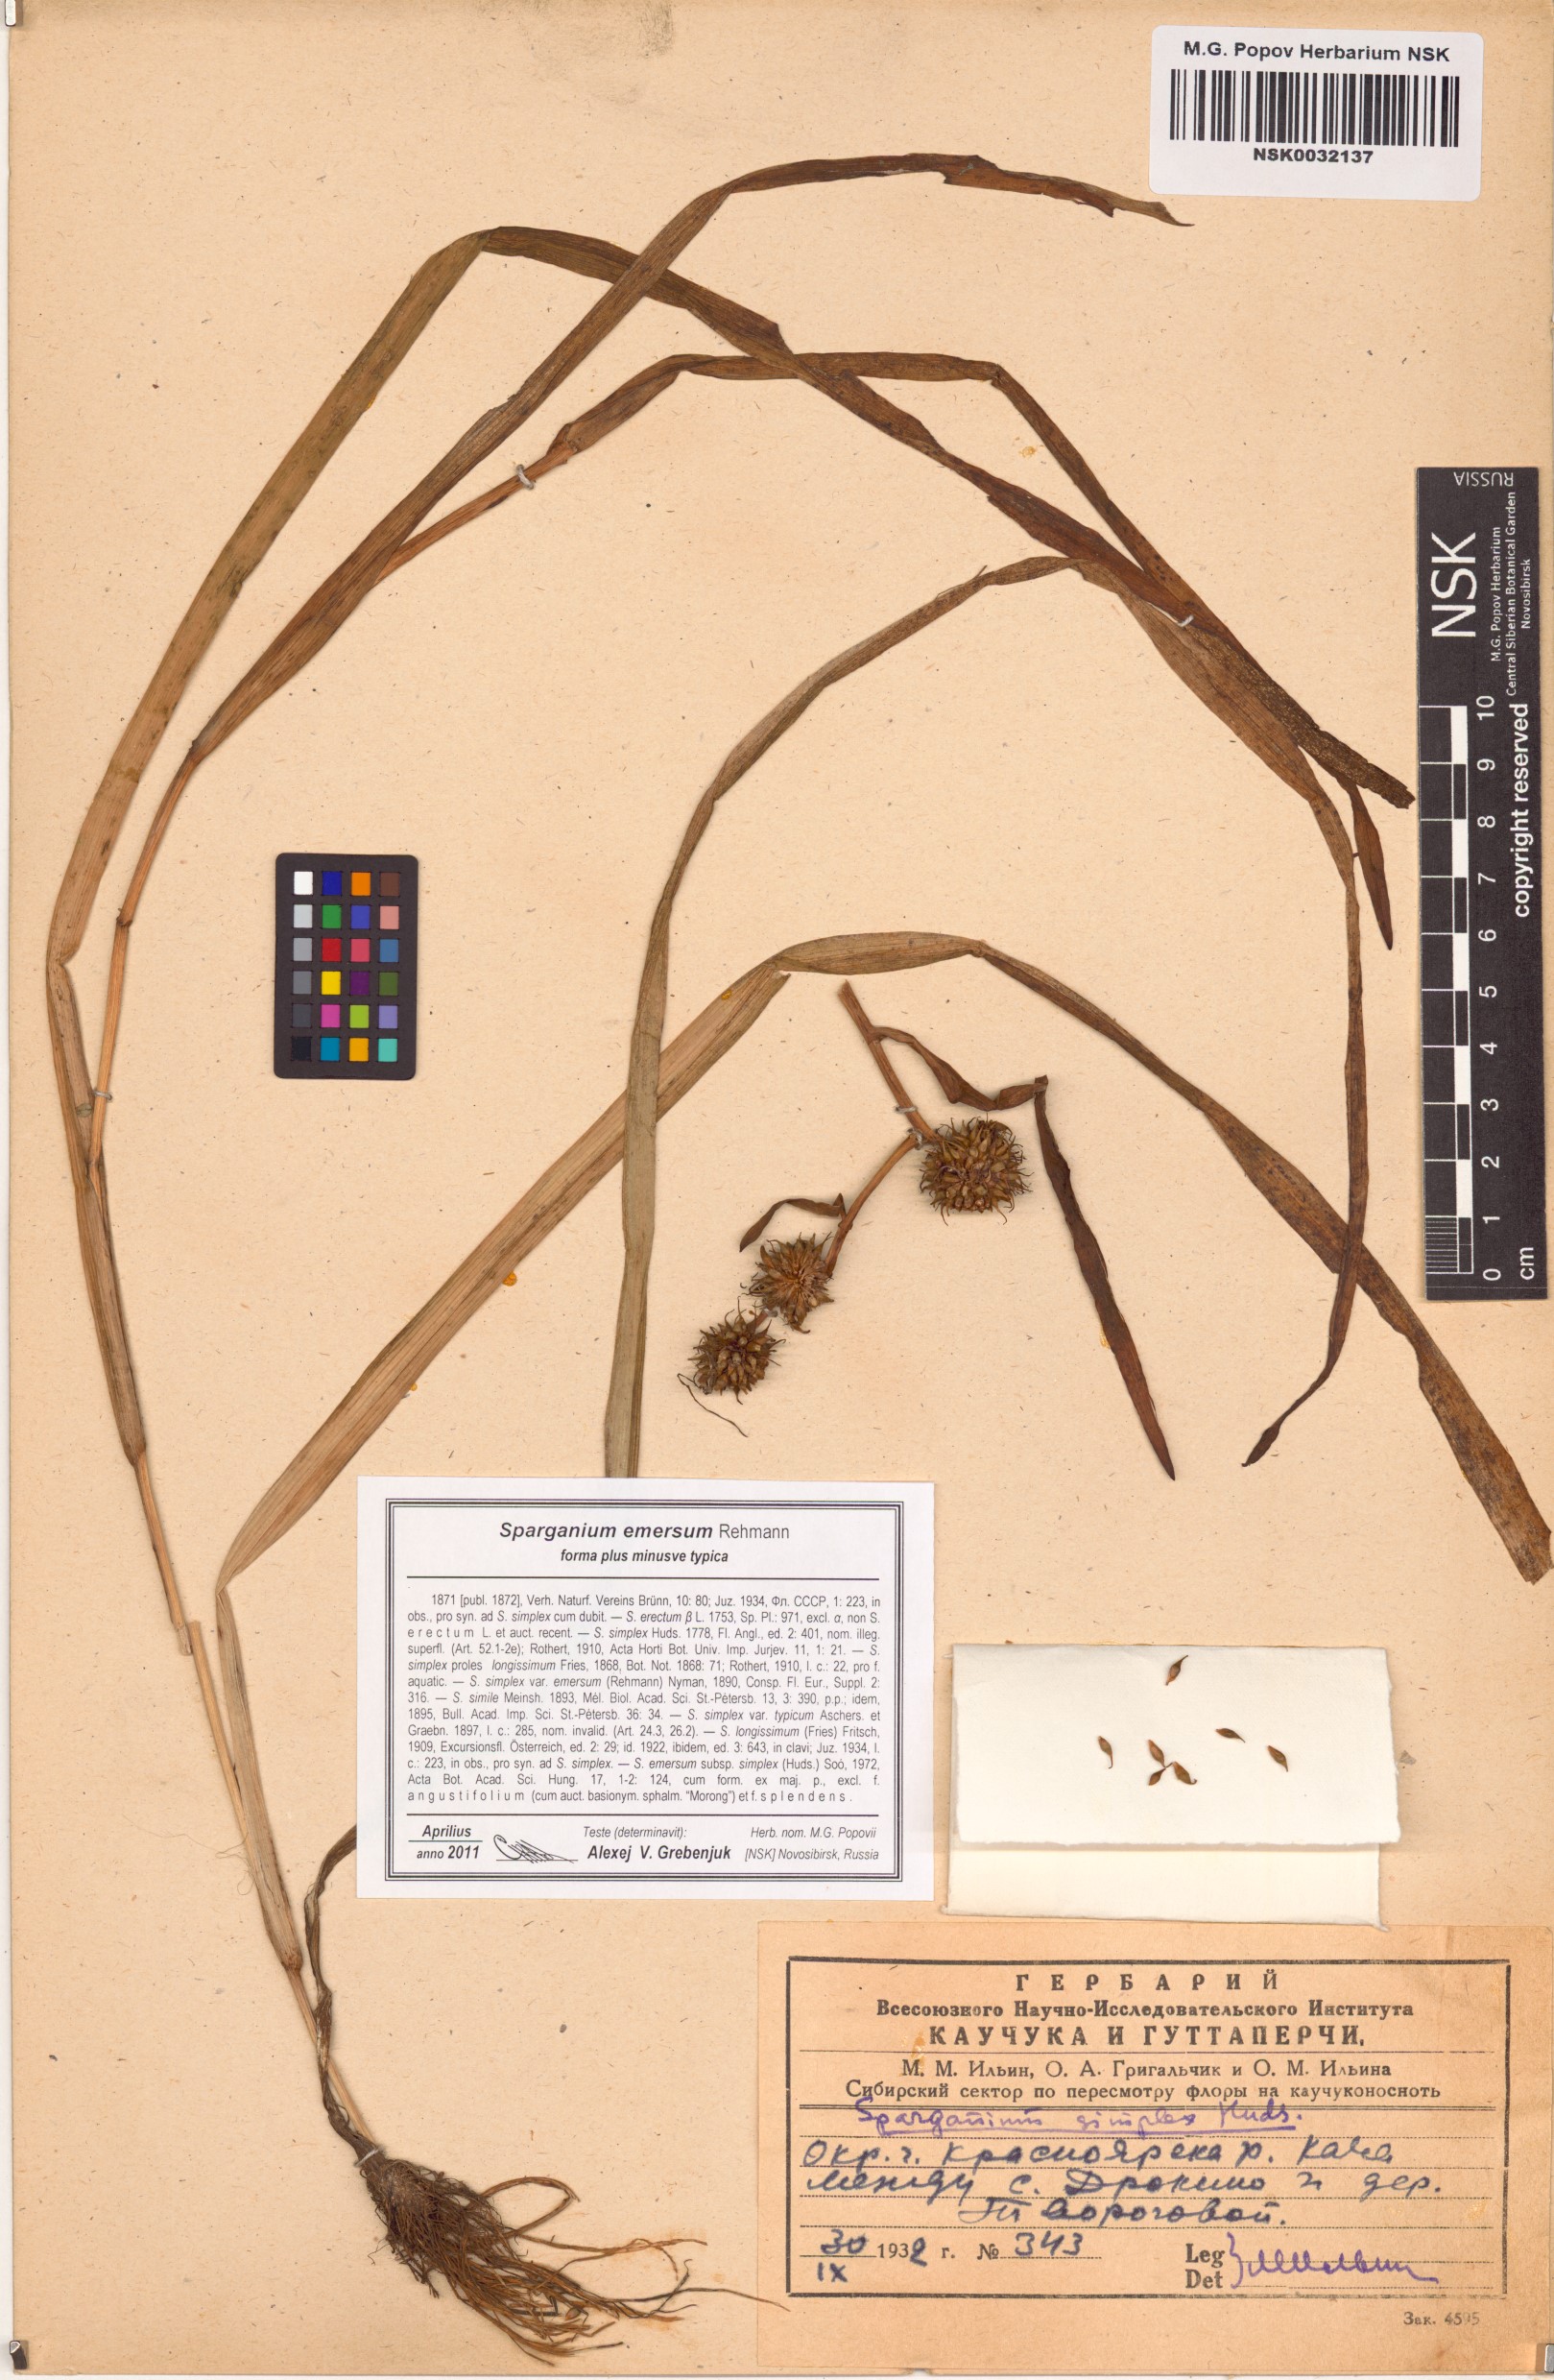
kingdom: Plantae
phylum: Tracheophyta
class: Liliopsida
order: Poales
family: Typhaceae
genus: Sparganium
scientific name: Sparganium emersum
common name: Unbranched bur-reed
